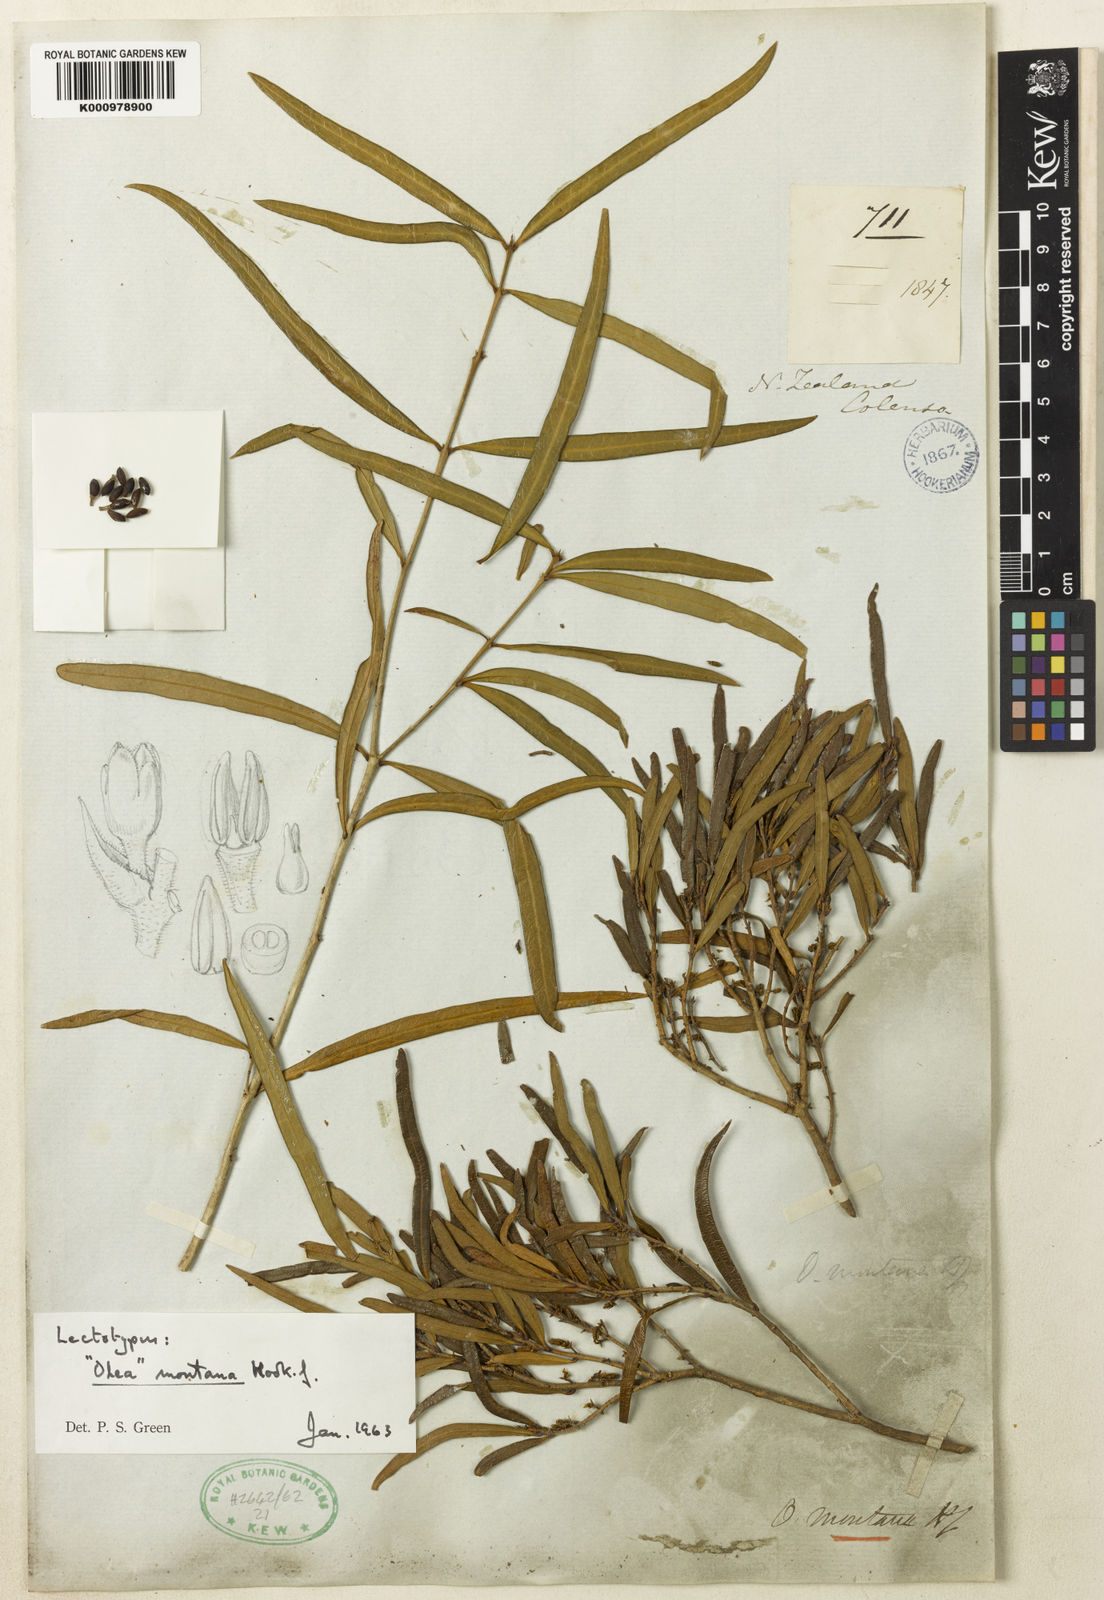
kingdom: Plantae
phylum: Tracheophyta
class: Magnoliopsida
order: Lamiales
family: Oleaceae
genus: Nestegis
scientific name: Nestegis montana
